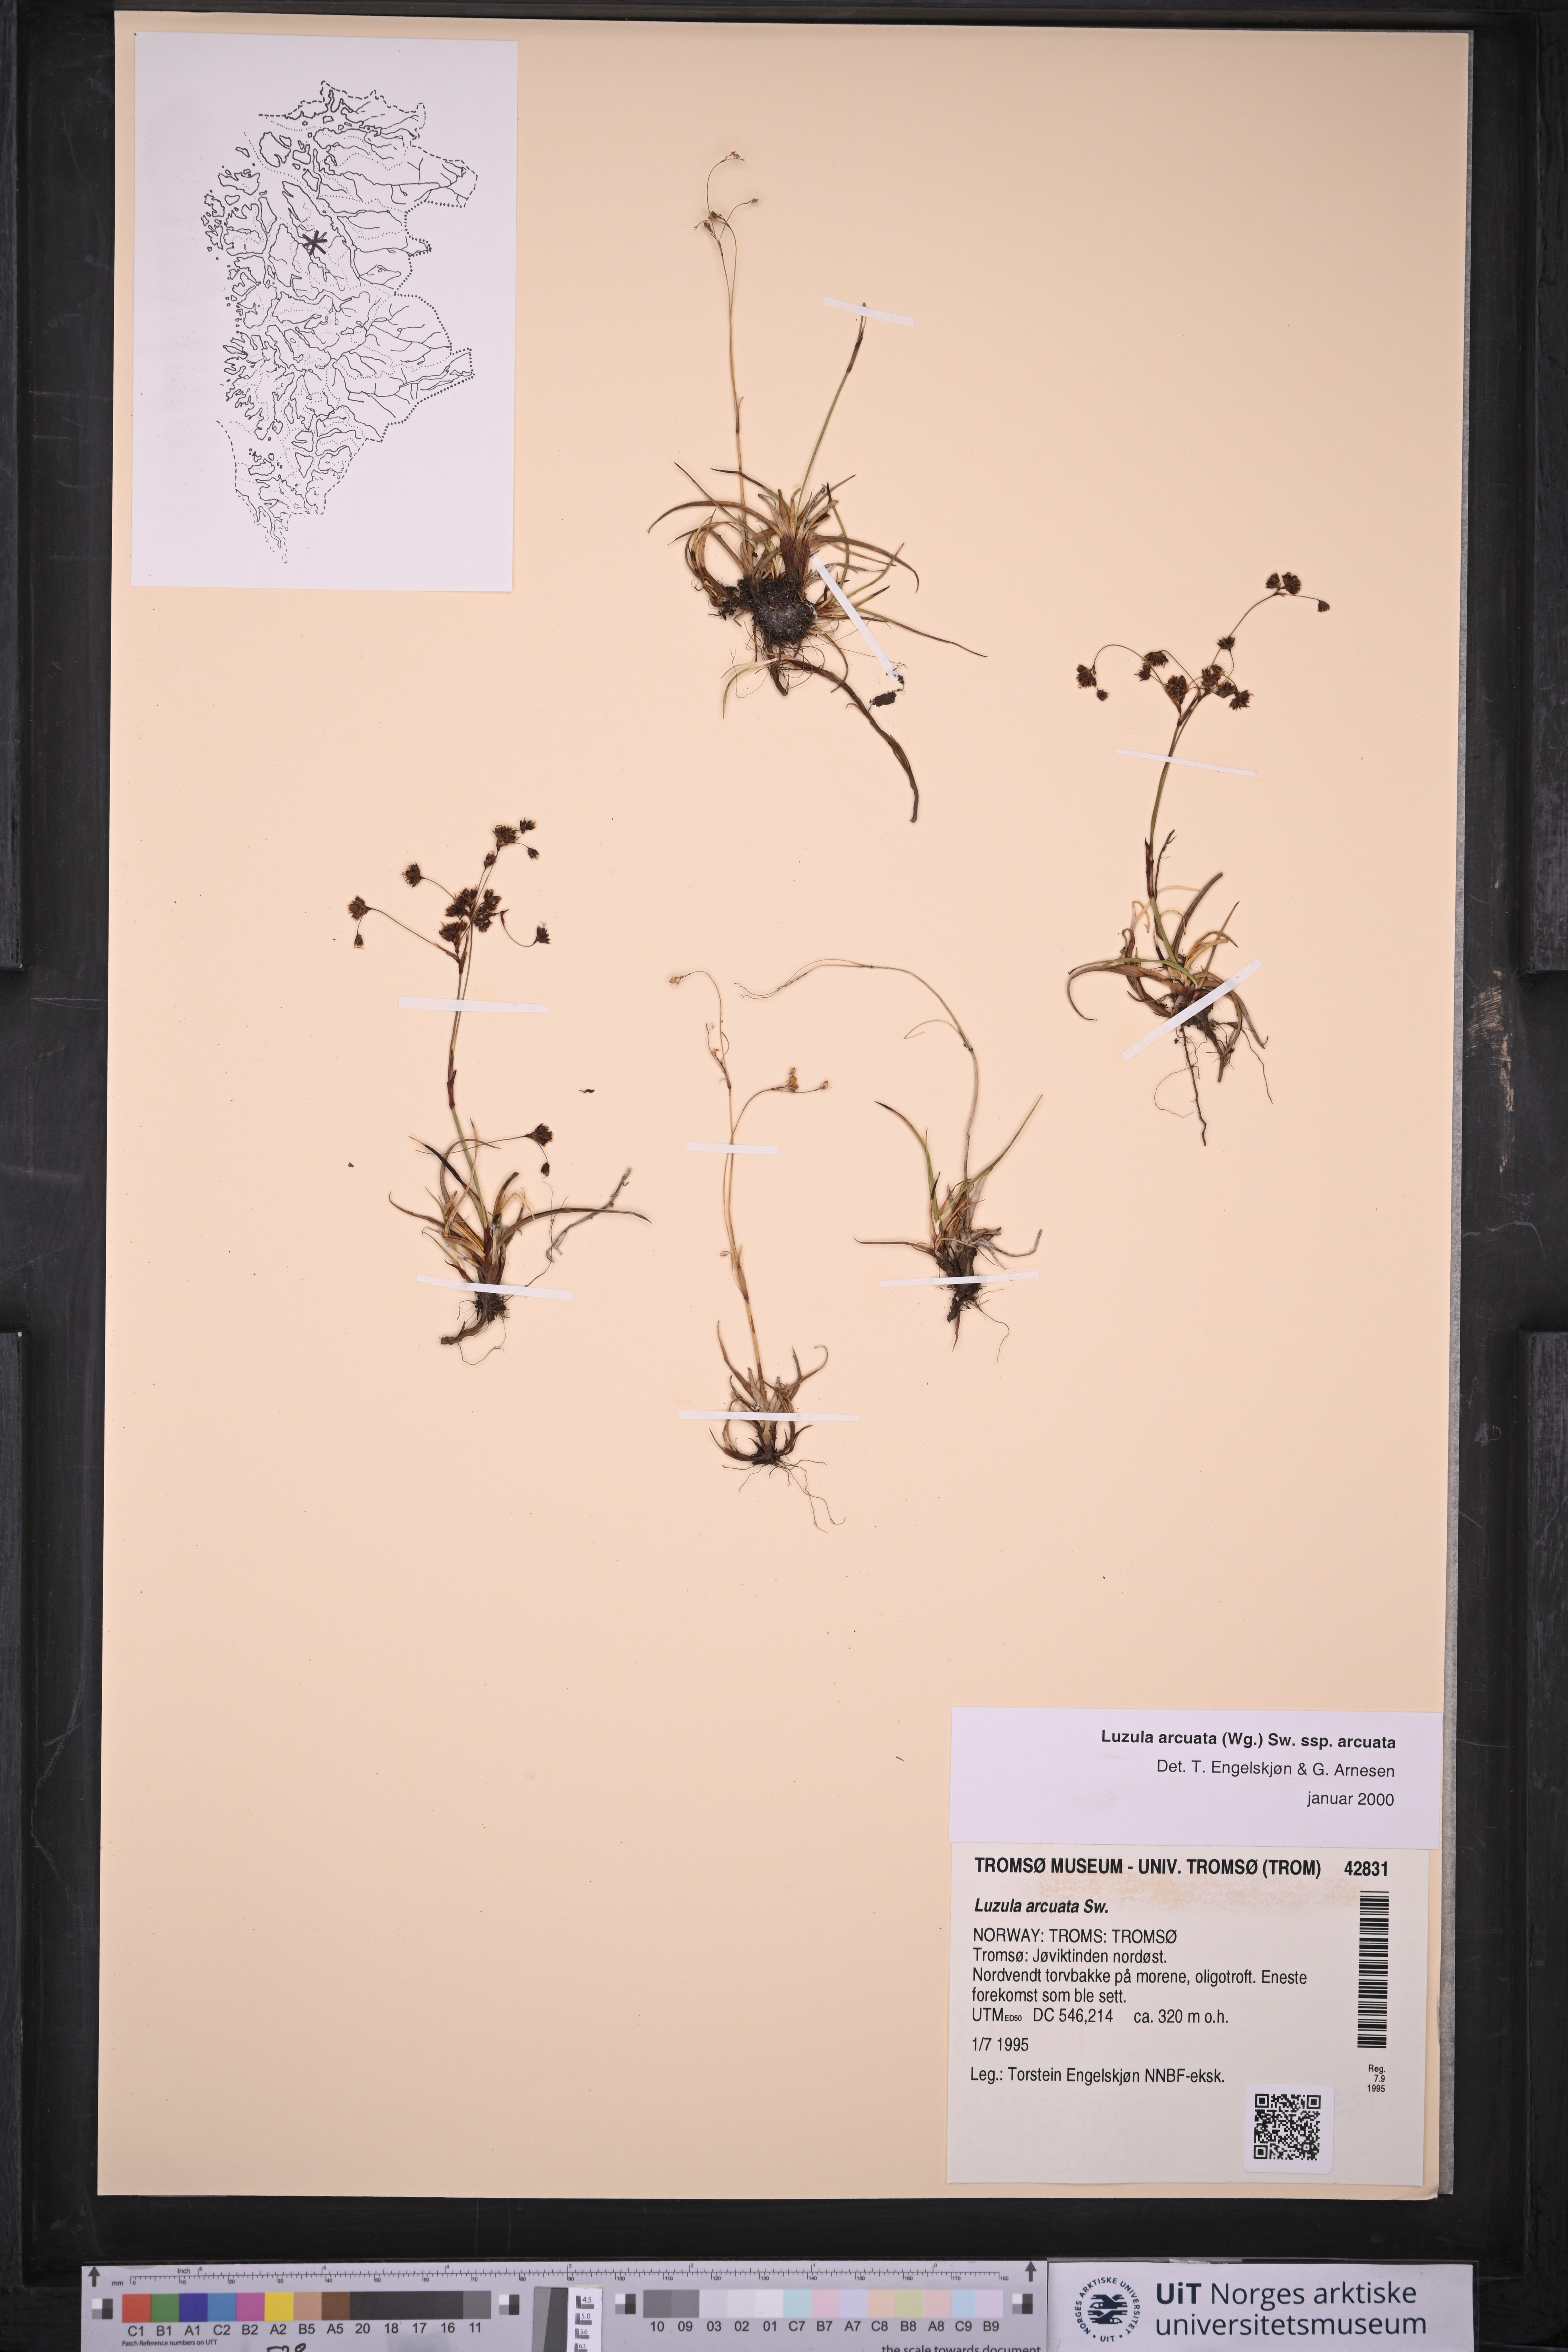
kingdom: Plantae
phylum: Tracheophyta
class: Liliopsida
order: Poales
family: Juncaceae
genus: Luzula
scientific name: Luzula arcuata
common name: Curved wood-rush
